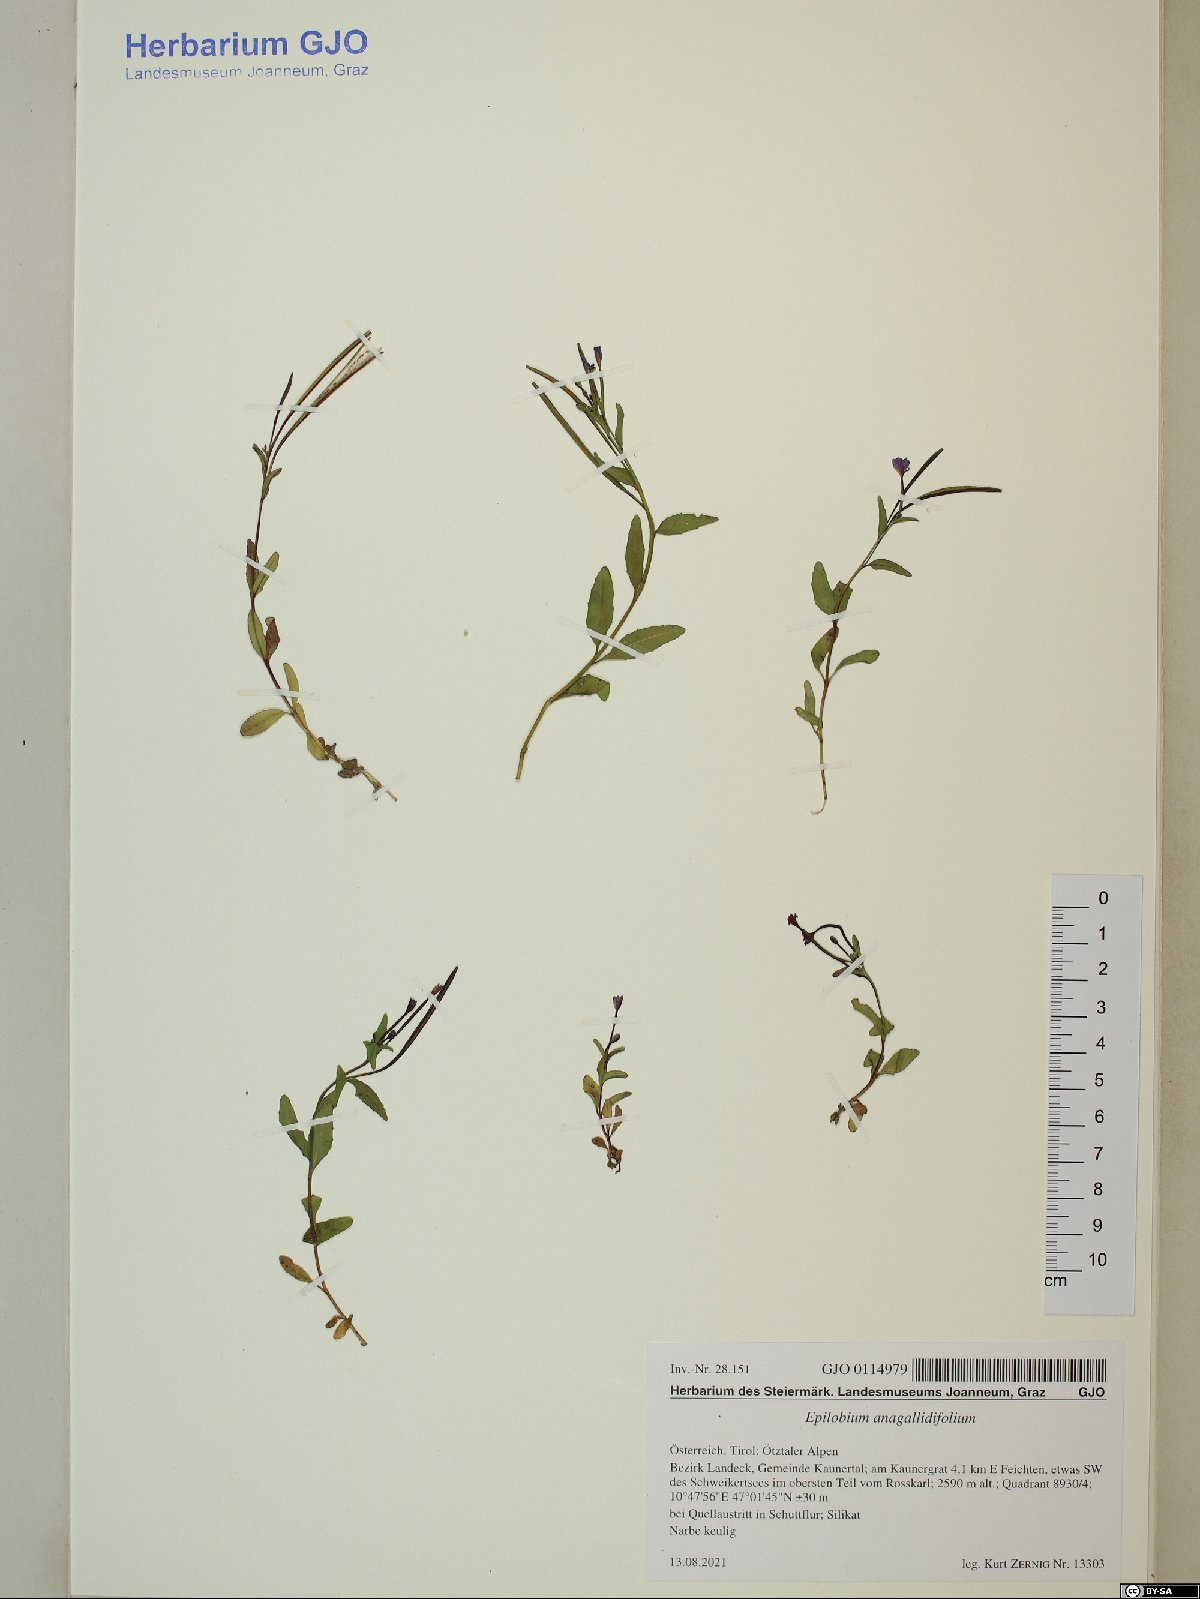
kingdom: Plantae
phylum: Tracheophyta
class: Magnoliopsida
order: Myrtales
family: Onagraceae
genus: Epilobium
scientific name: Epilobium anagallidifolium
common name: Alpine willowherb
